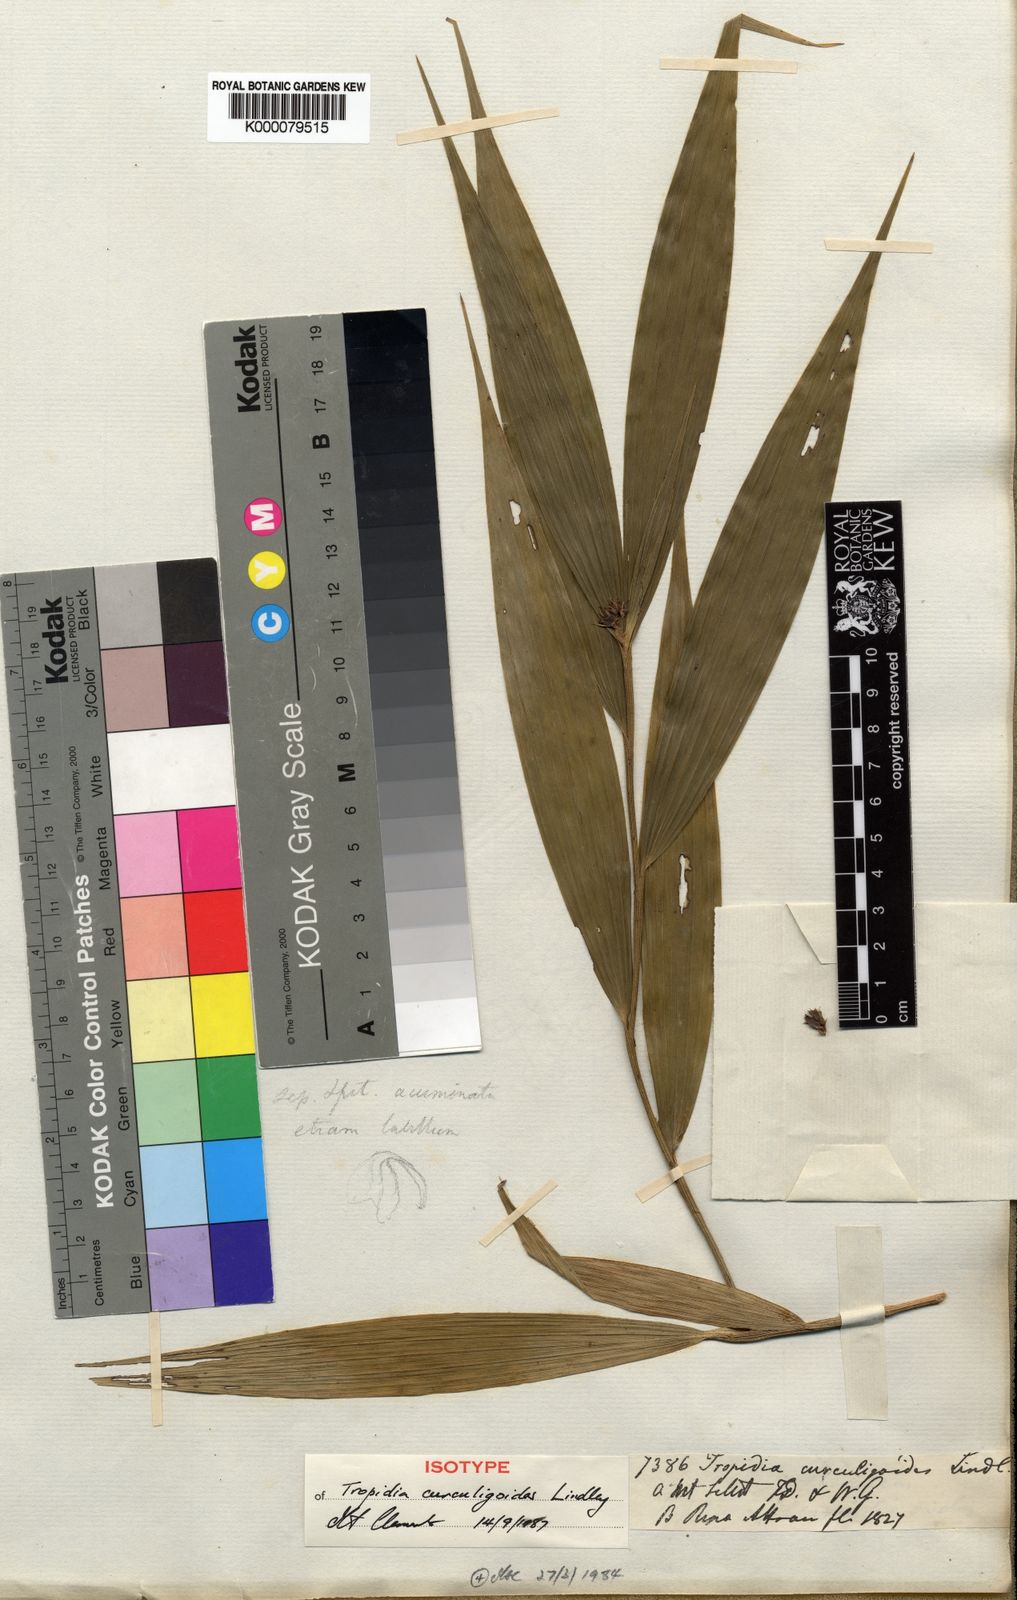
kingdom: Plantae
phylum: Tracheophyta
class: Liliopsida
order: Asparagales
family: Orchidaceae
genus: Tropidia
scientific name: Tropidia curculigoides
